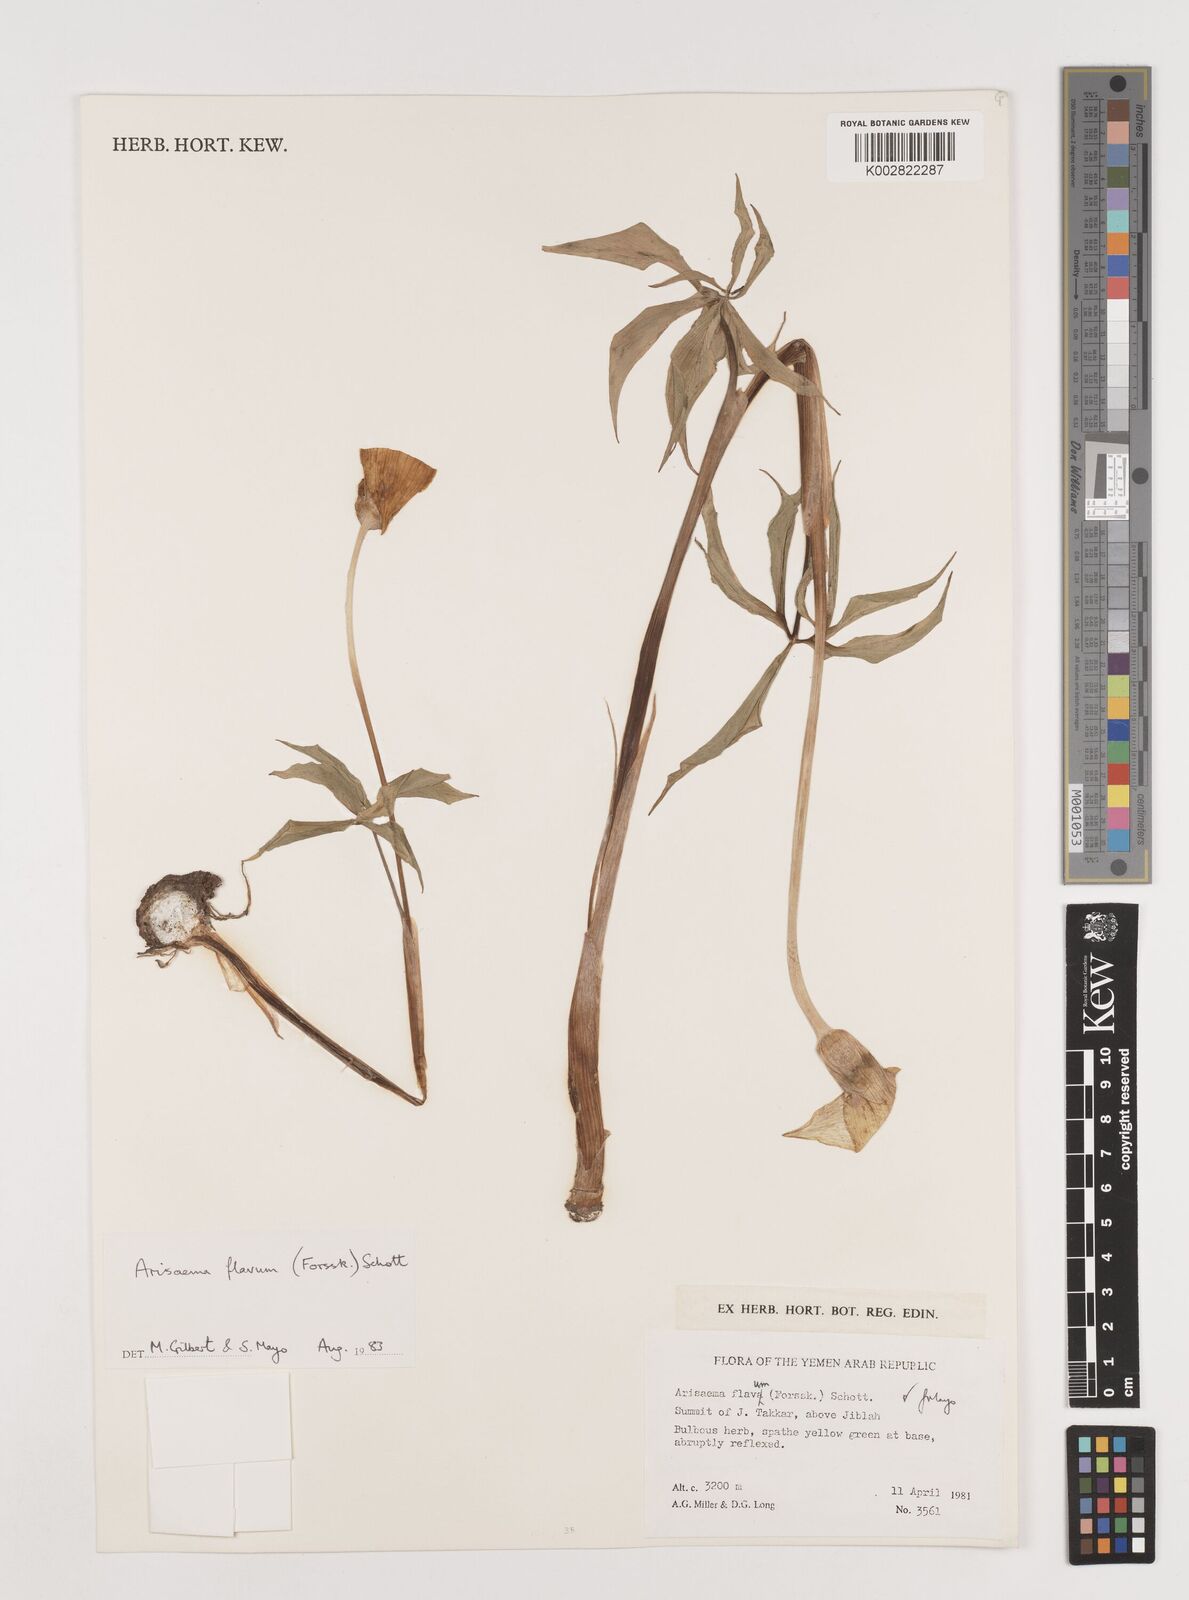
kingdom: Plantae
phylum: Tracheophyta
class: Liliopsida
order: Alismatales
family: Araceae
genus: Arisaema
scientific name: Arisaema flavum
